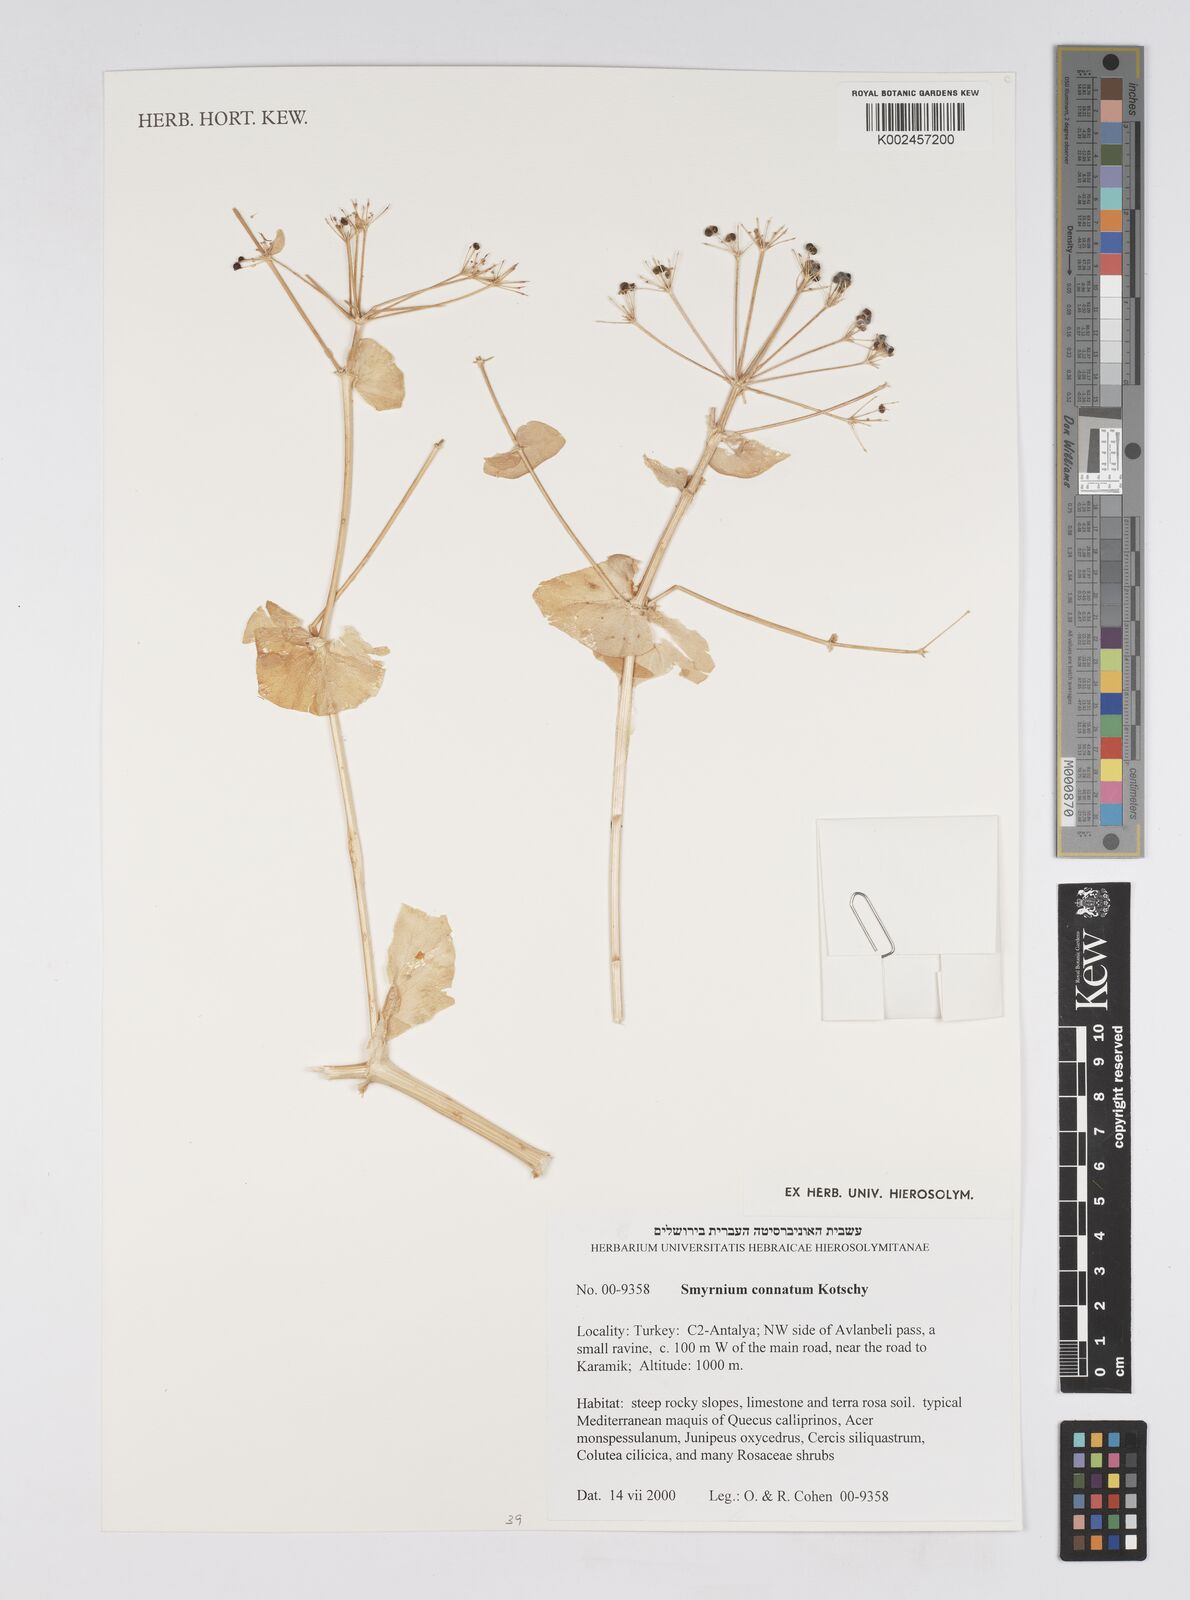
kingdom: Plantae
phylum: Tracheophyta
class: Magnoliopsida
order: Apiales
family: Apiaceae
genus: Smyrnium
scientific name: Smyrnium connatum
